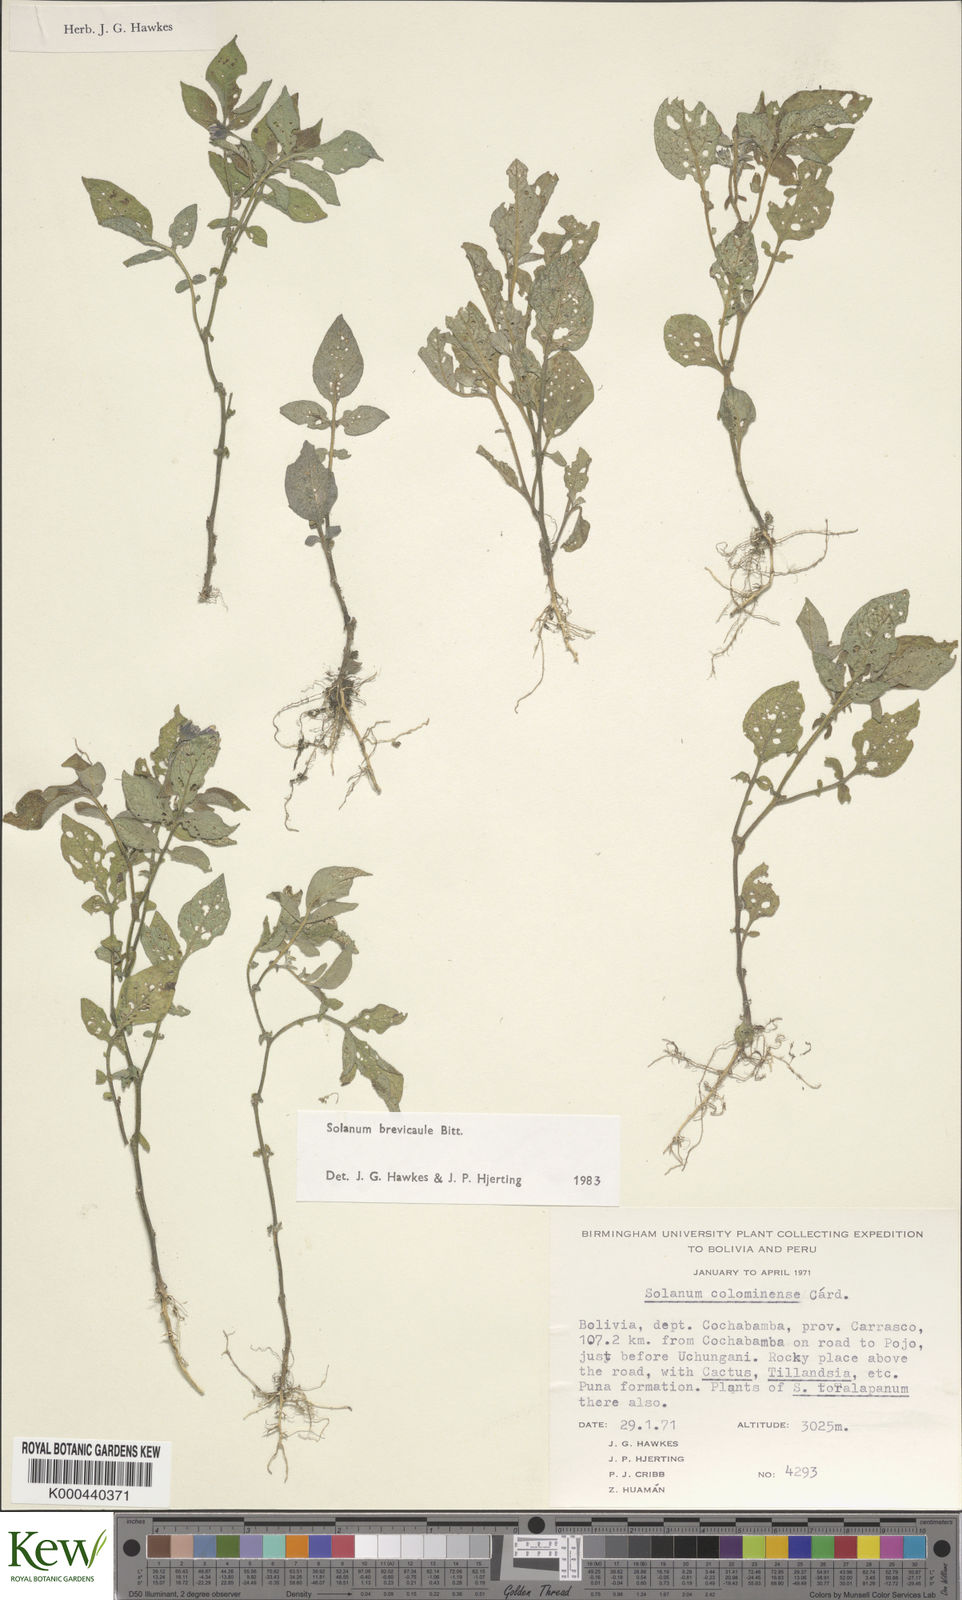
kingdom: Plantae
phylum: Tracheophyta
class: Magnoliopsida
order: Solanales
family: Solanaceae
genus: Solanum
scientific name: Solanum brevicaule
